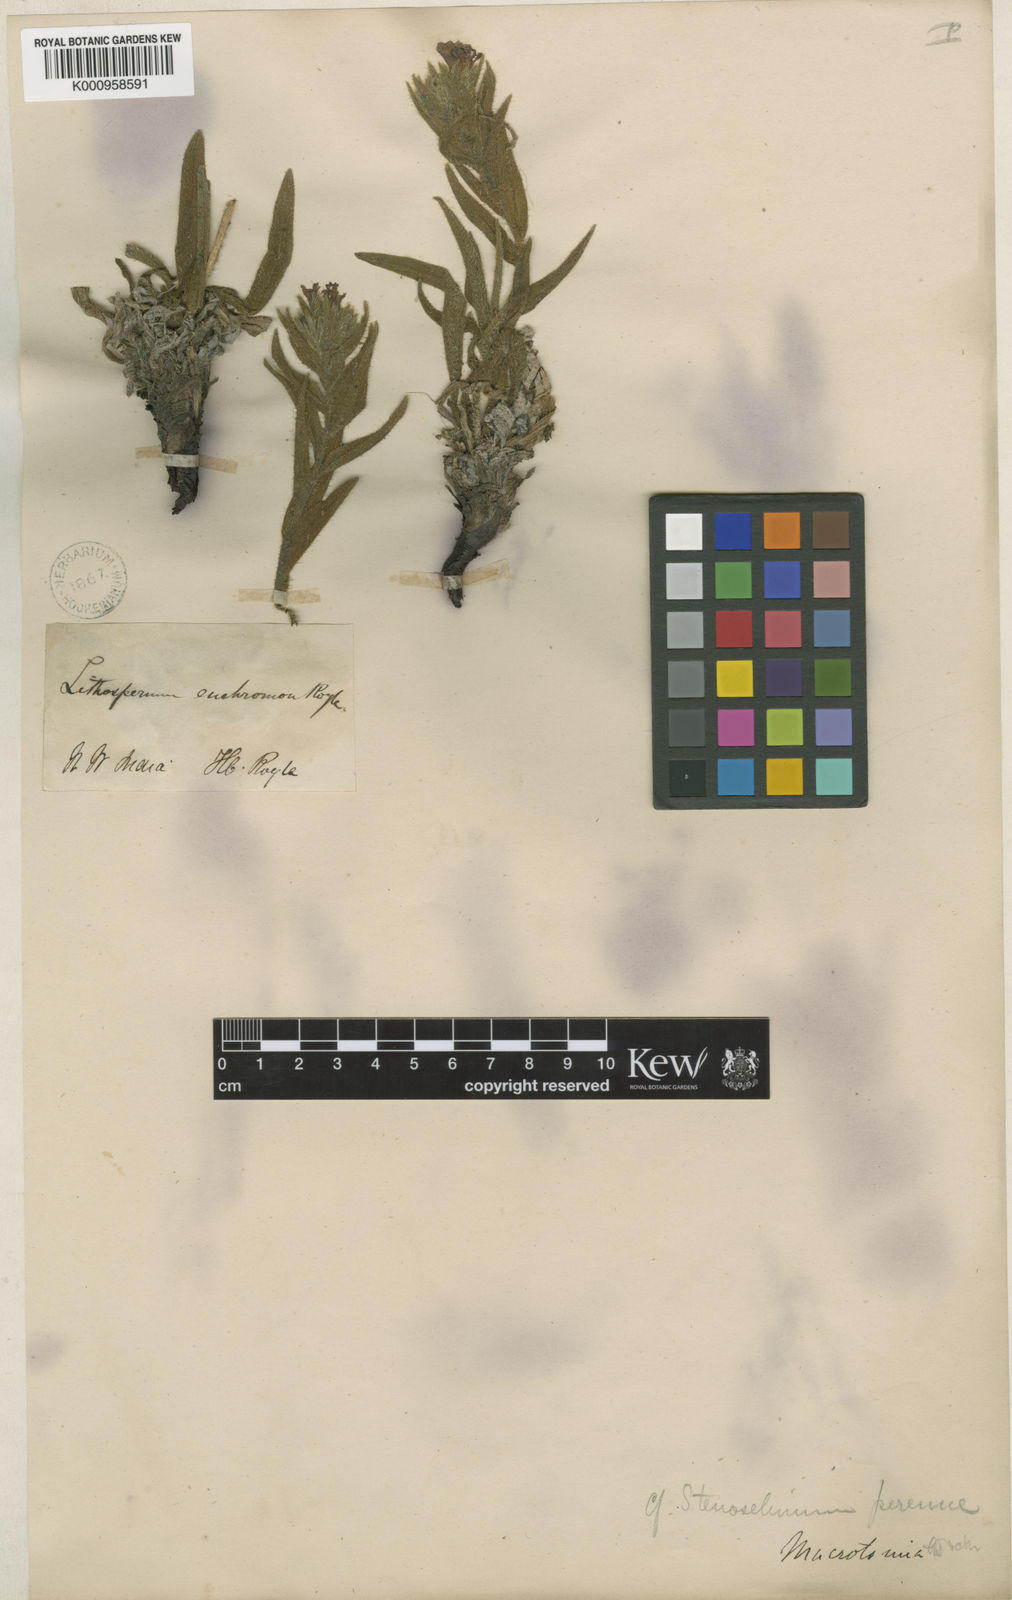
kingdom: Plantae
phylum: Tracheophyta
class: Magnoliopsida
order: Boraginales
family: Boraginaceae
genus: Arnebia
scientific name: Arnebia euchroma
